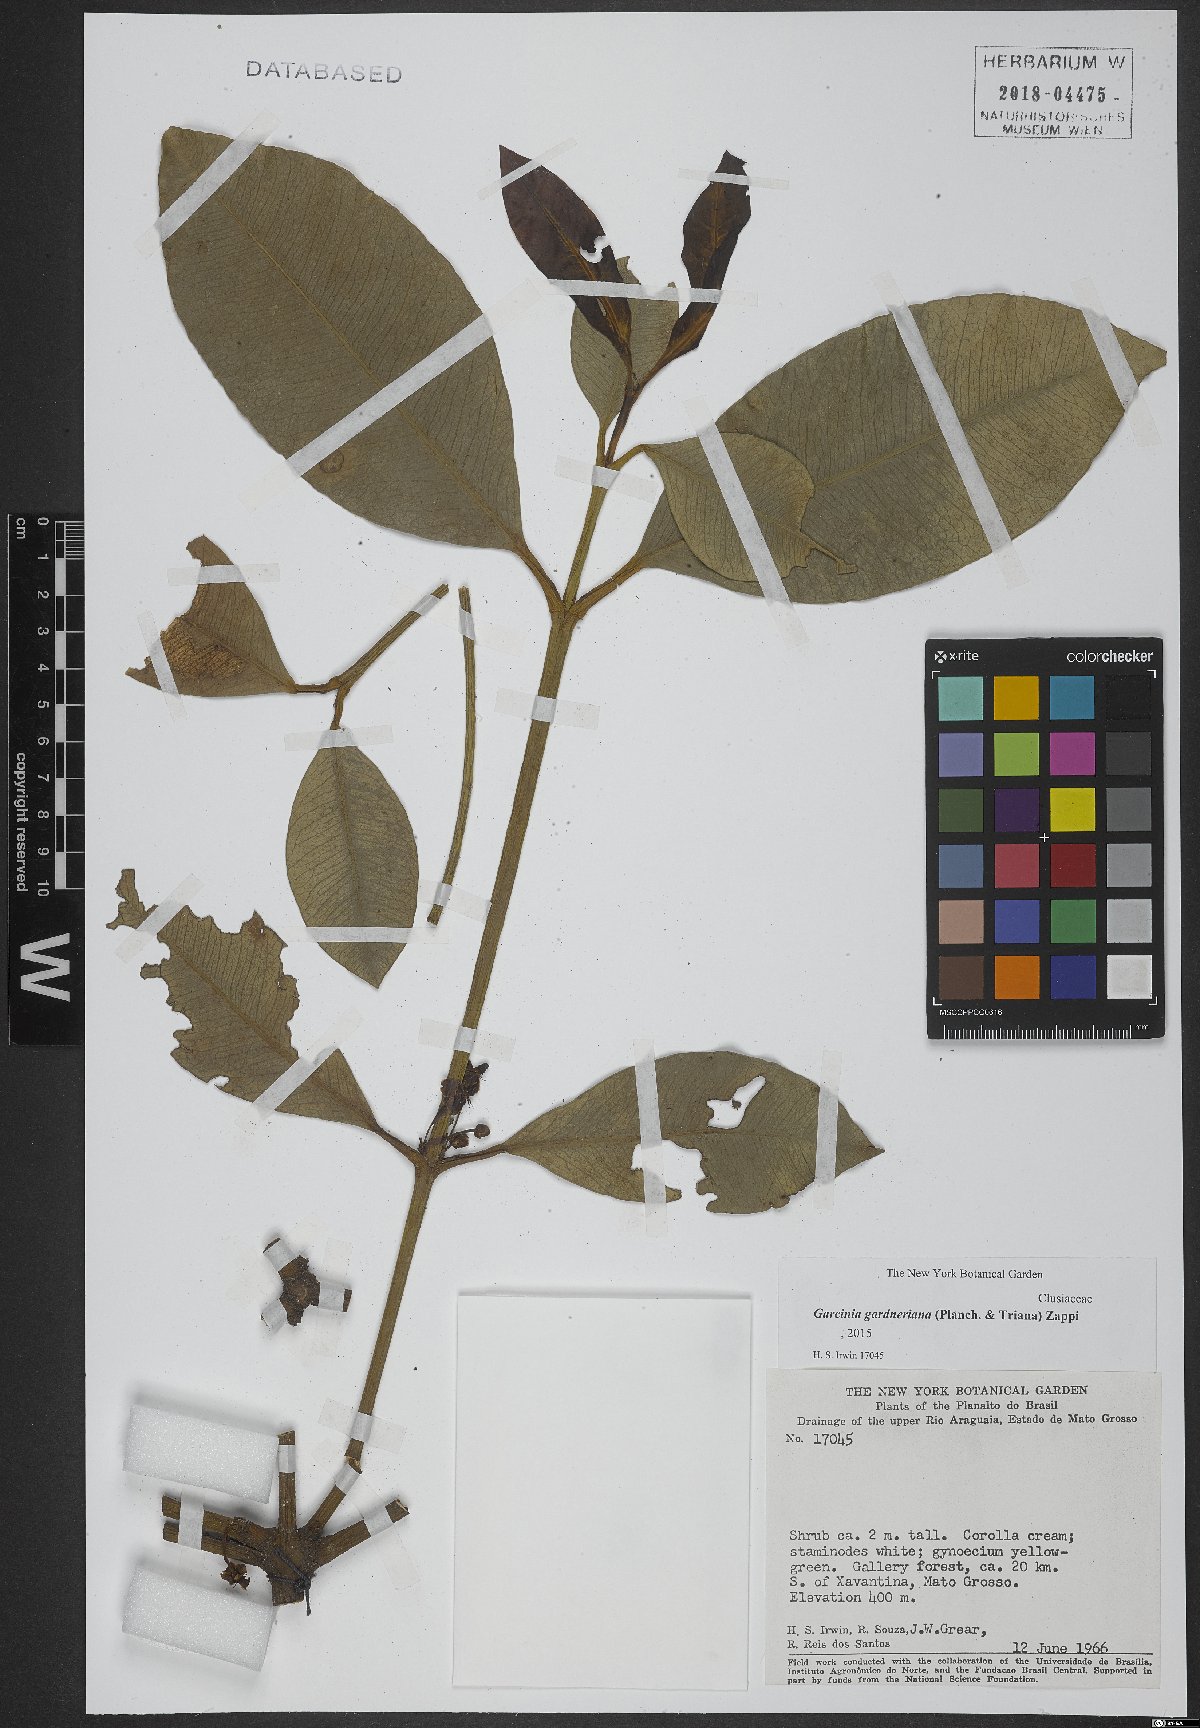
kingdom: Plantae
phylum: Tracheophyta
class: Magnoliopsida
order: Malpighiales
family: Clusiaceae
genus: Garcinia
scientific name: Garcinia gardneriana
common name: Achacha
